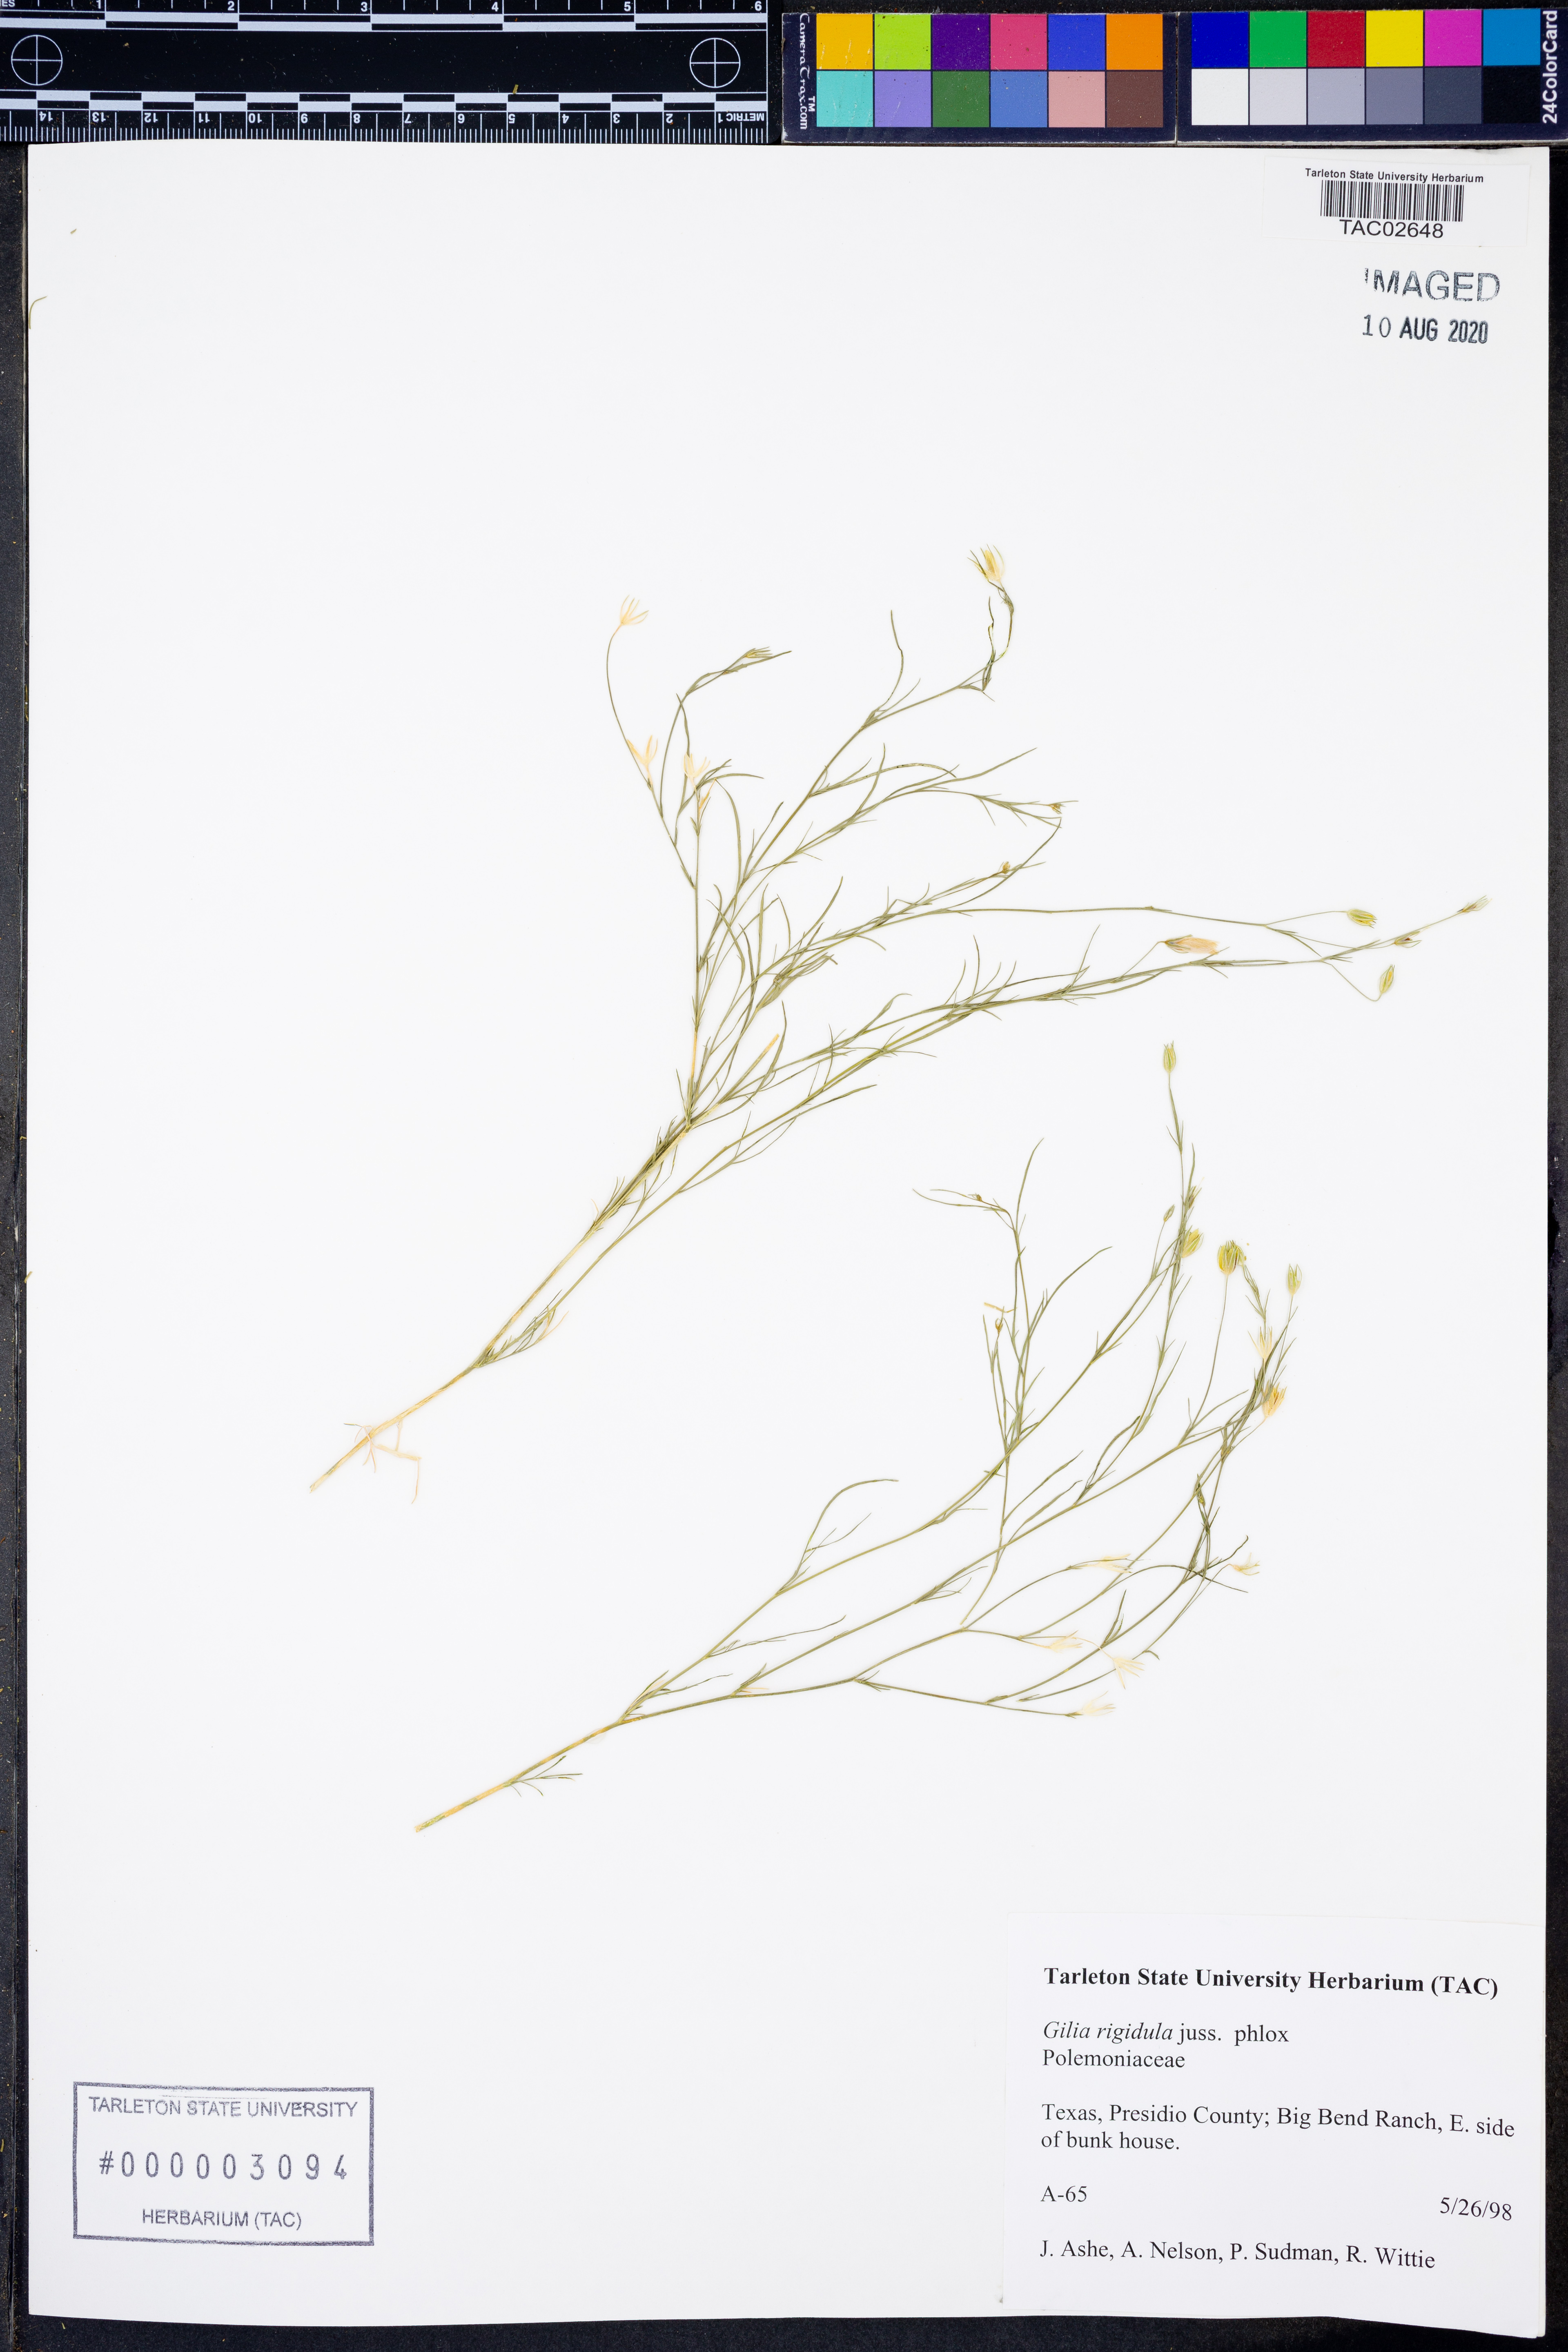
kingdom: Plantae
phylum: Tracheophyta
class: Magnoliopsida
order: Ericales
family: Polemoniaceae
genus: Giliastrum
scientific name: Giliastrum rigidulum
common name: Bluebowls
